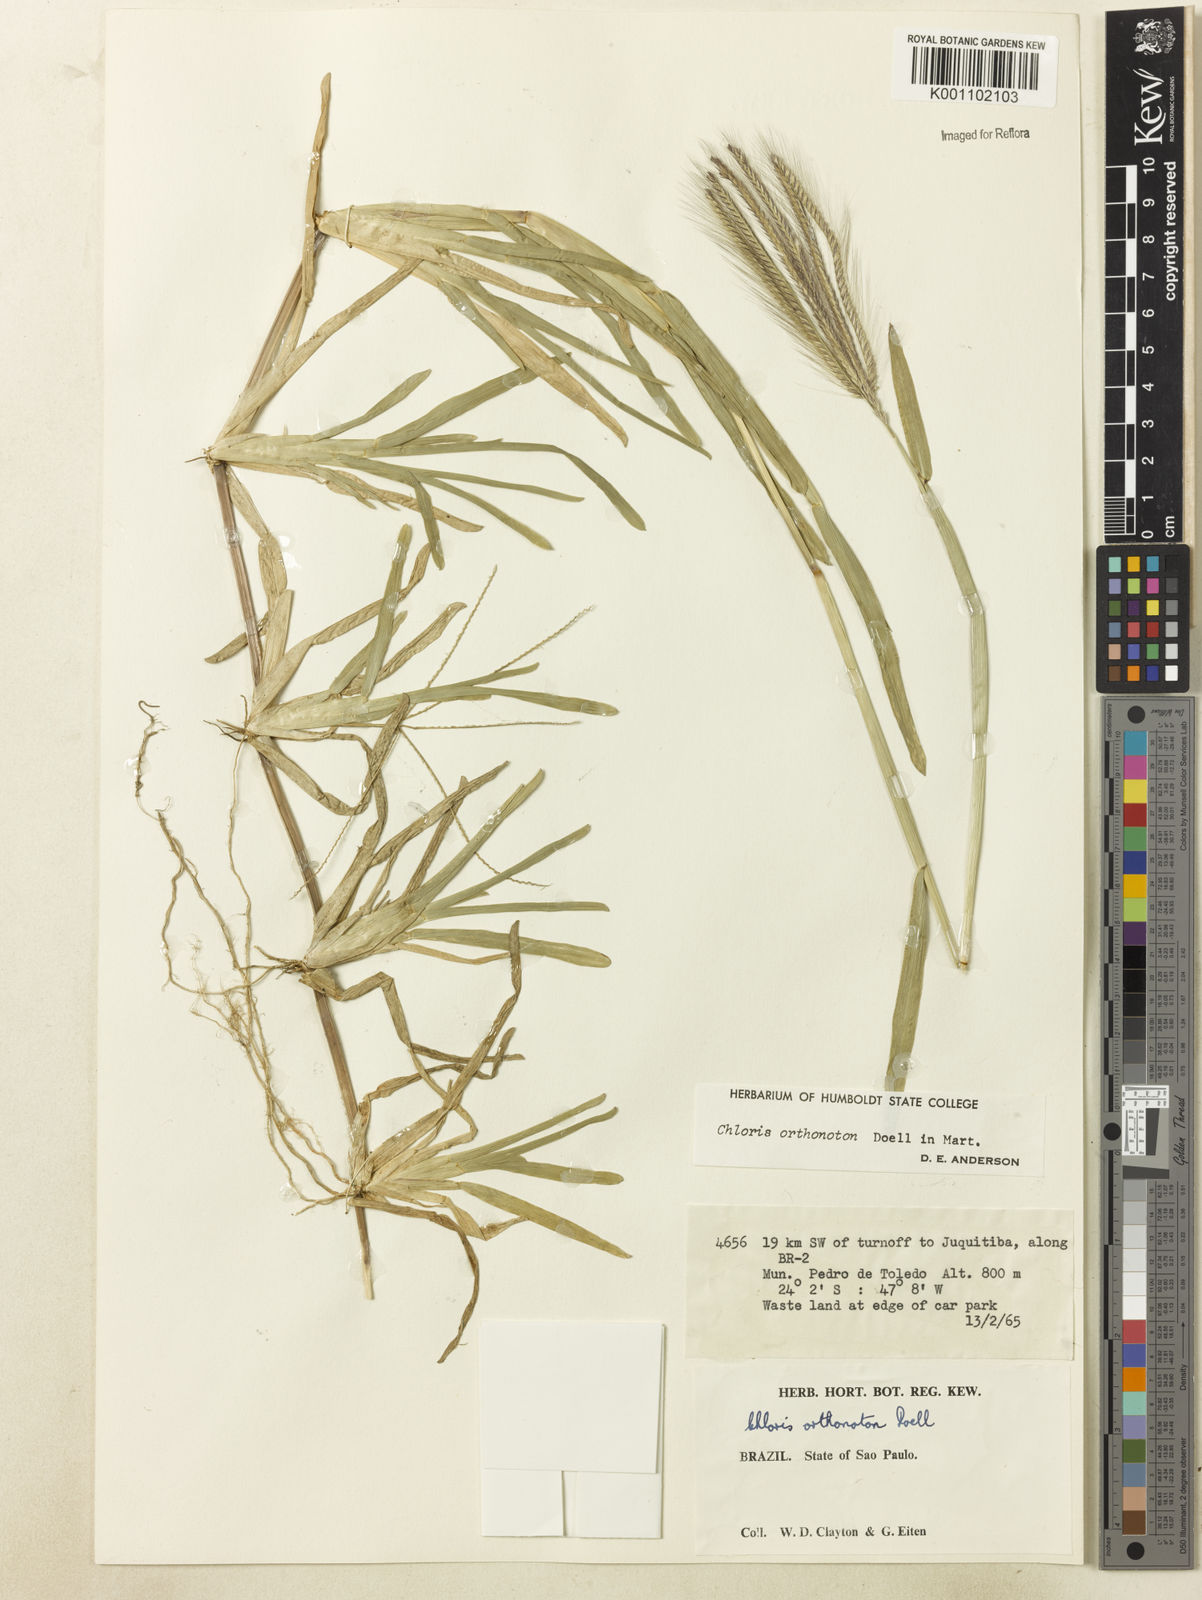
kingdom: Plantae
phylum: Tracheophyta
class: Liliopsida
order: Poales
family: Poaceae
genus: Chloris
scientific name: Chloris
